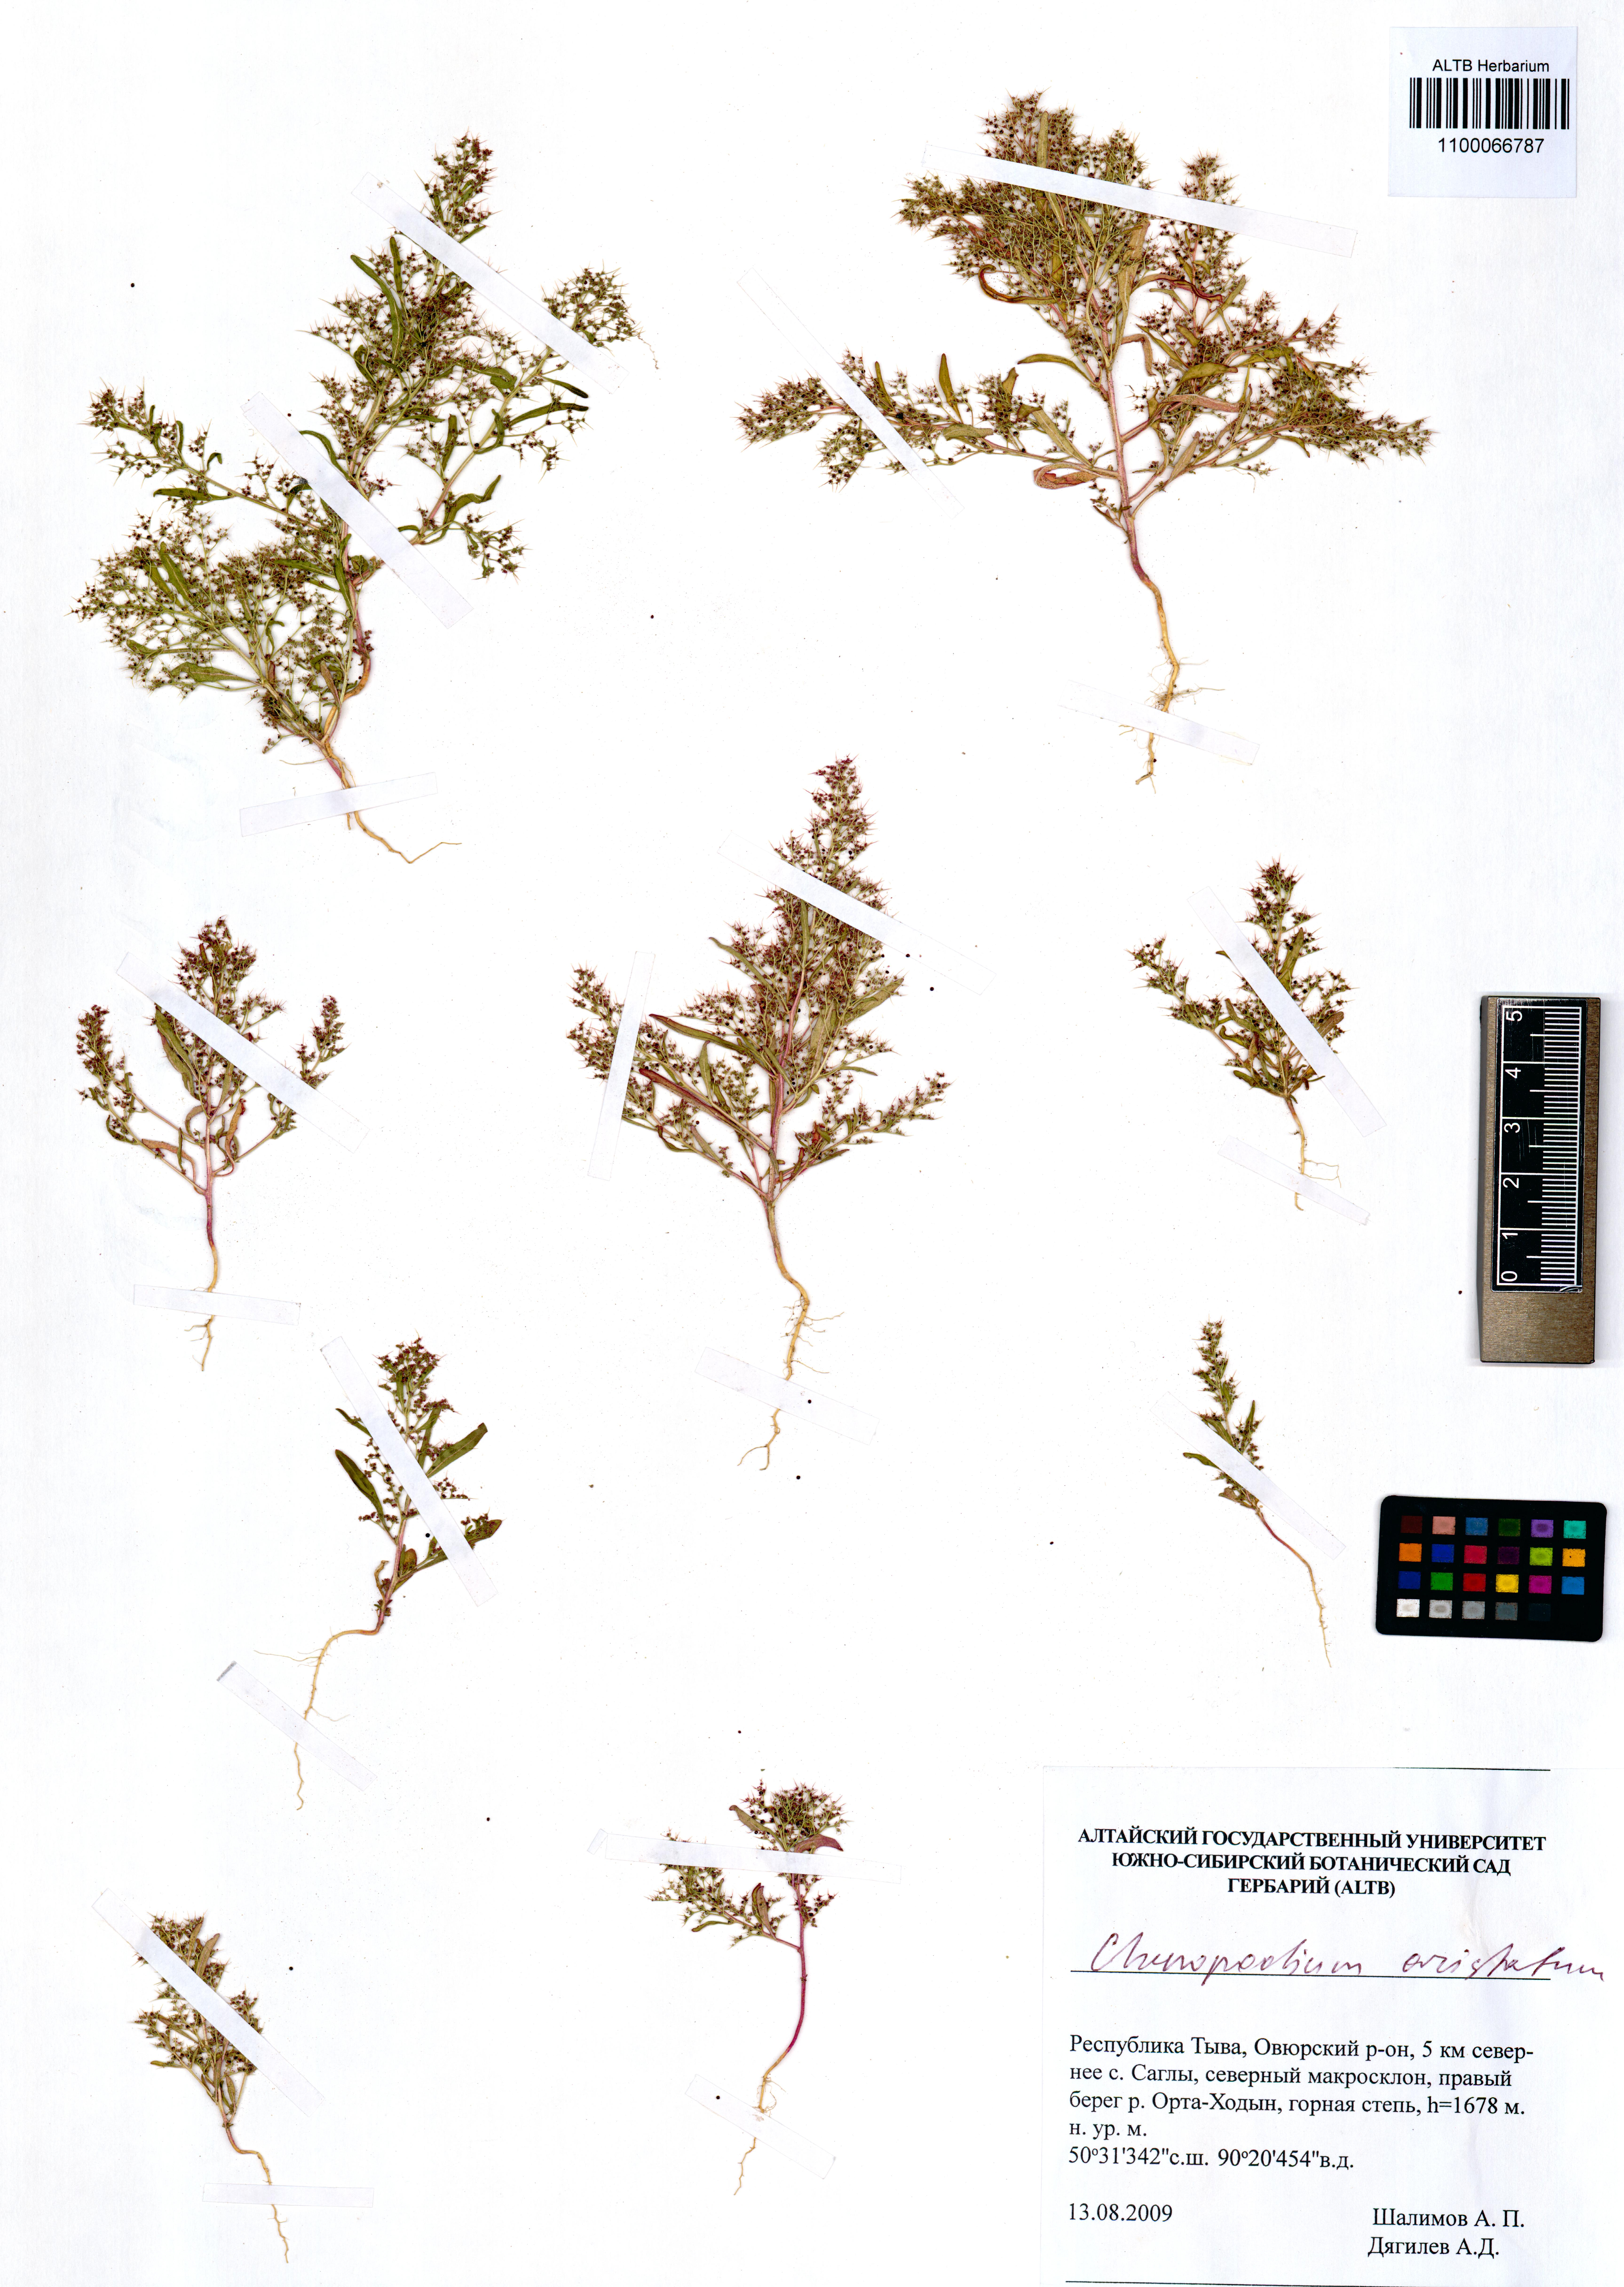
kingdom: Plantae
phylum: Tracheophyta
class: Magnoliopsida
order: Caryophyllales
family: Amaranthaceae
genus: Teloxys
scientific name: Teloxys aristata
